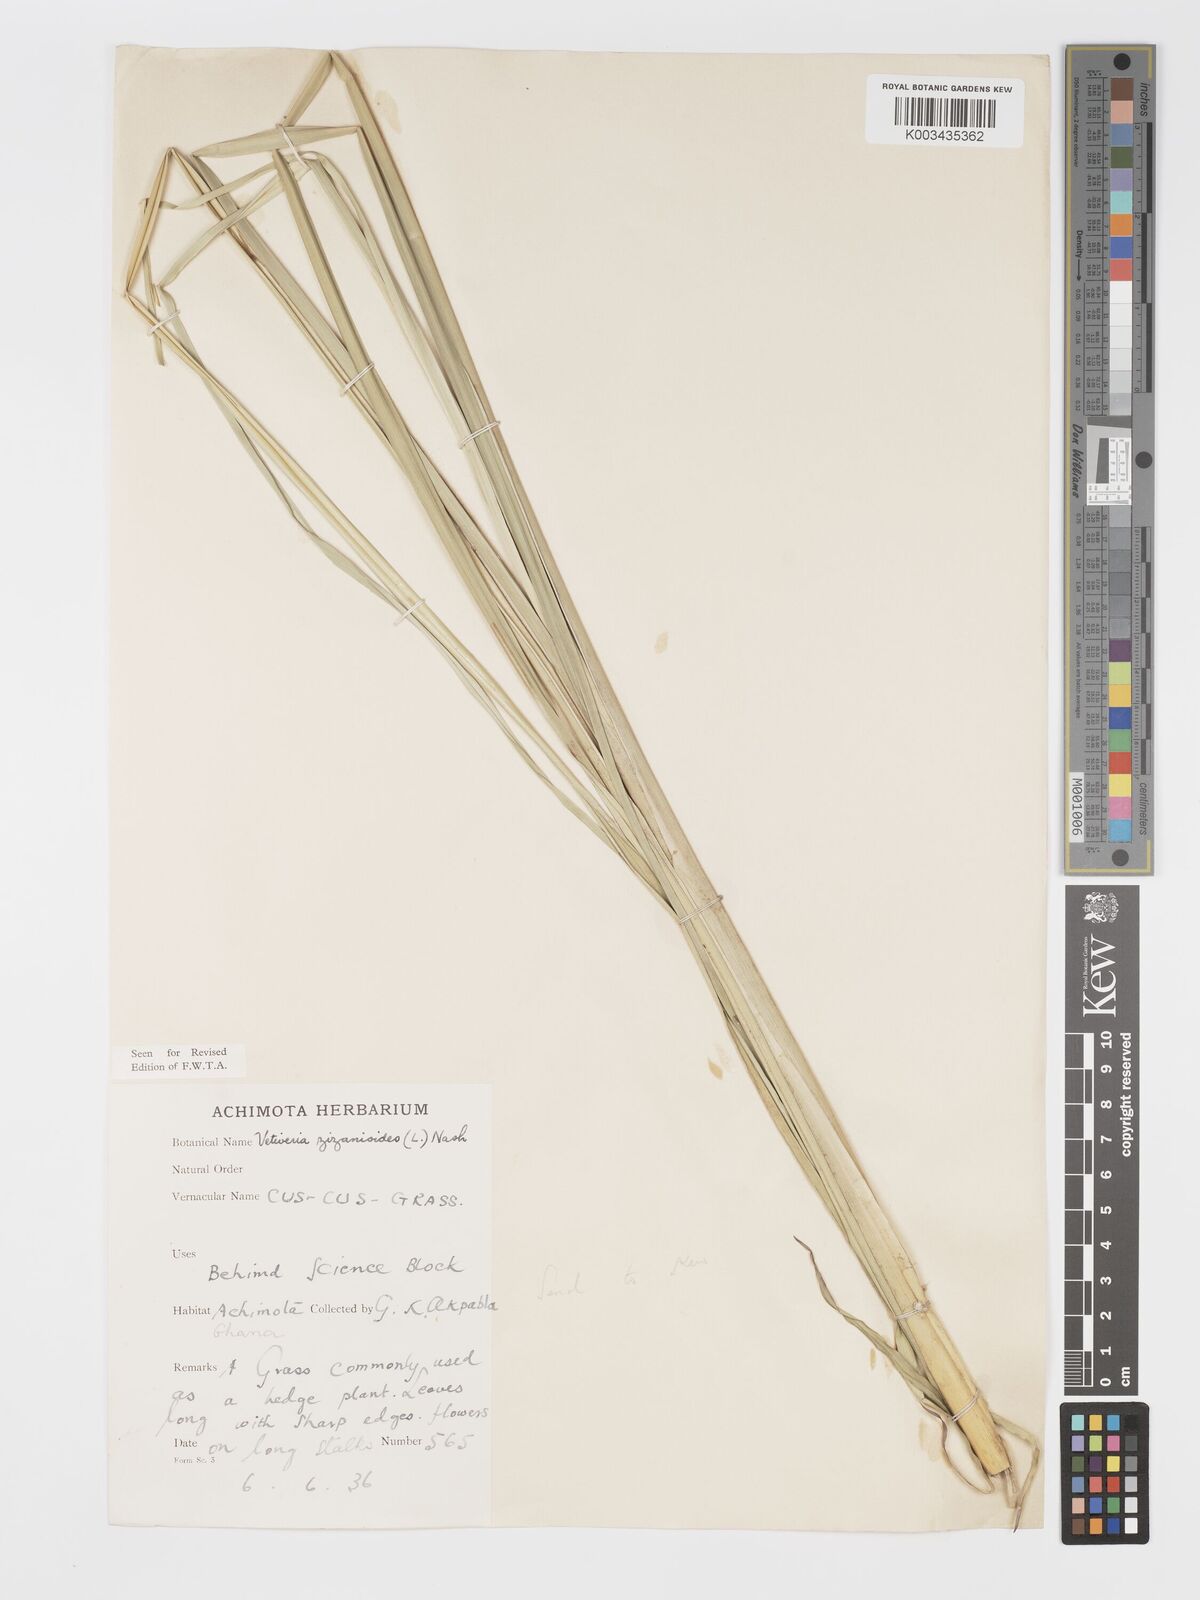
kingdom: Plantae
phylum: Tracheophyta
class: Liliopsida
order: Poales
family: Poaceae
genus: Chrysopogon
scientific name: Chrysopogon zizanioides
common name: False beardgrass
